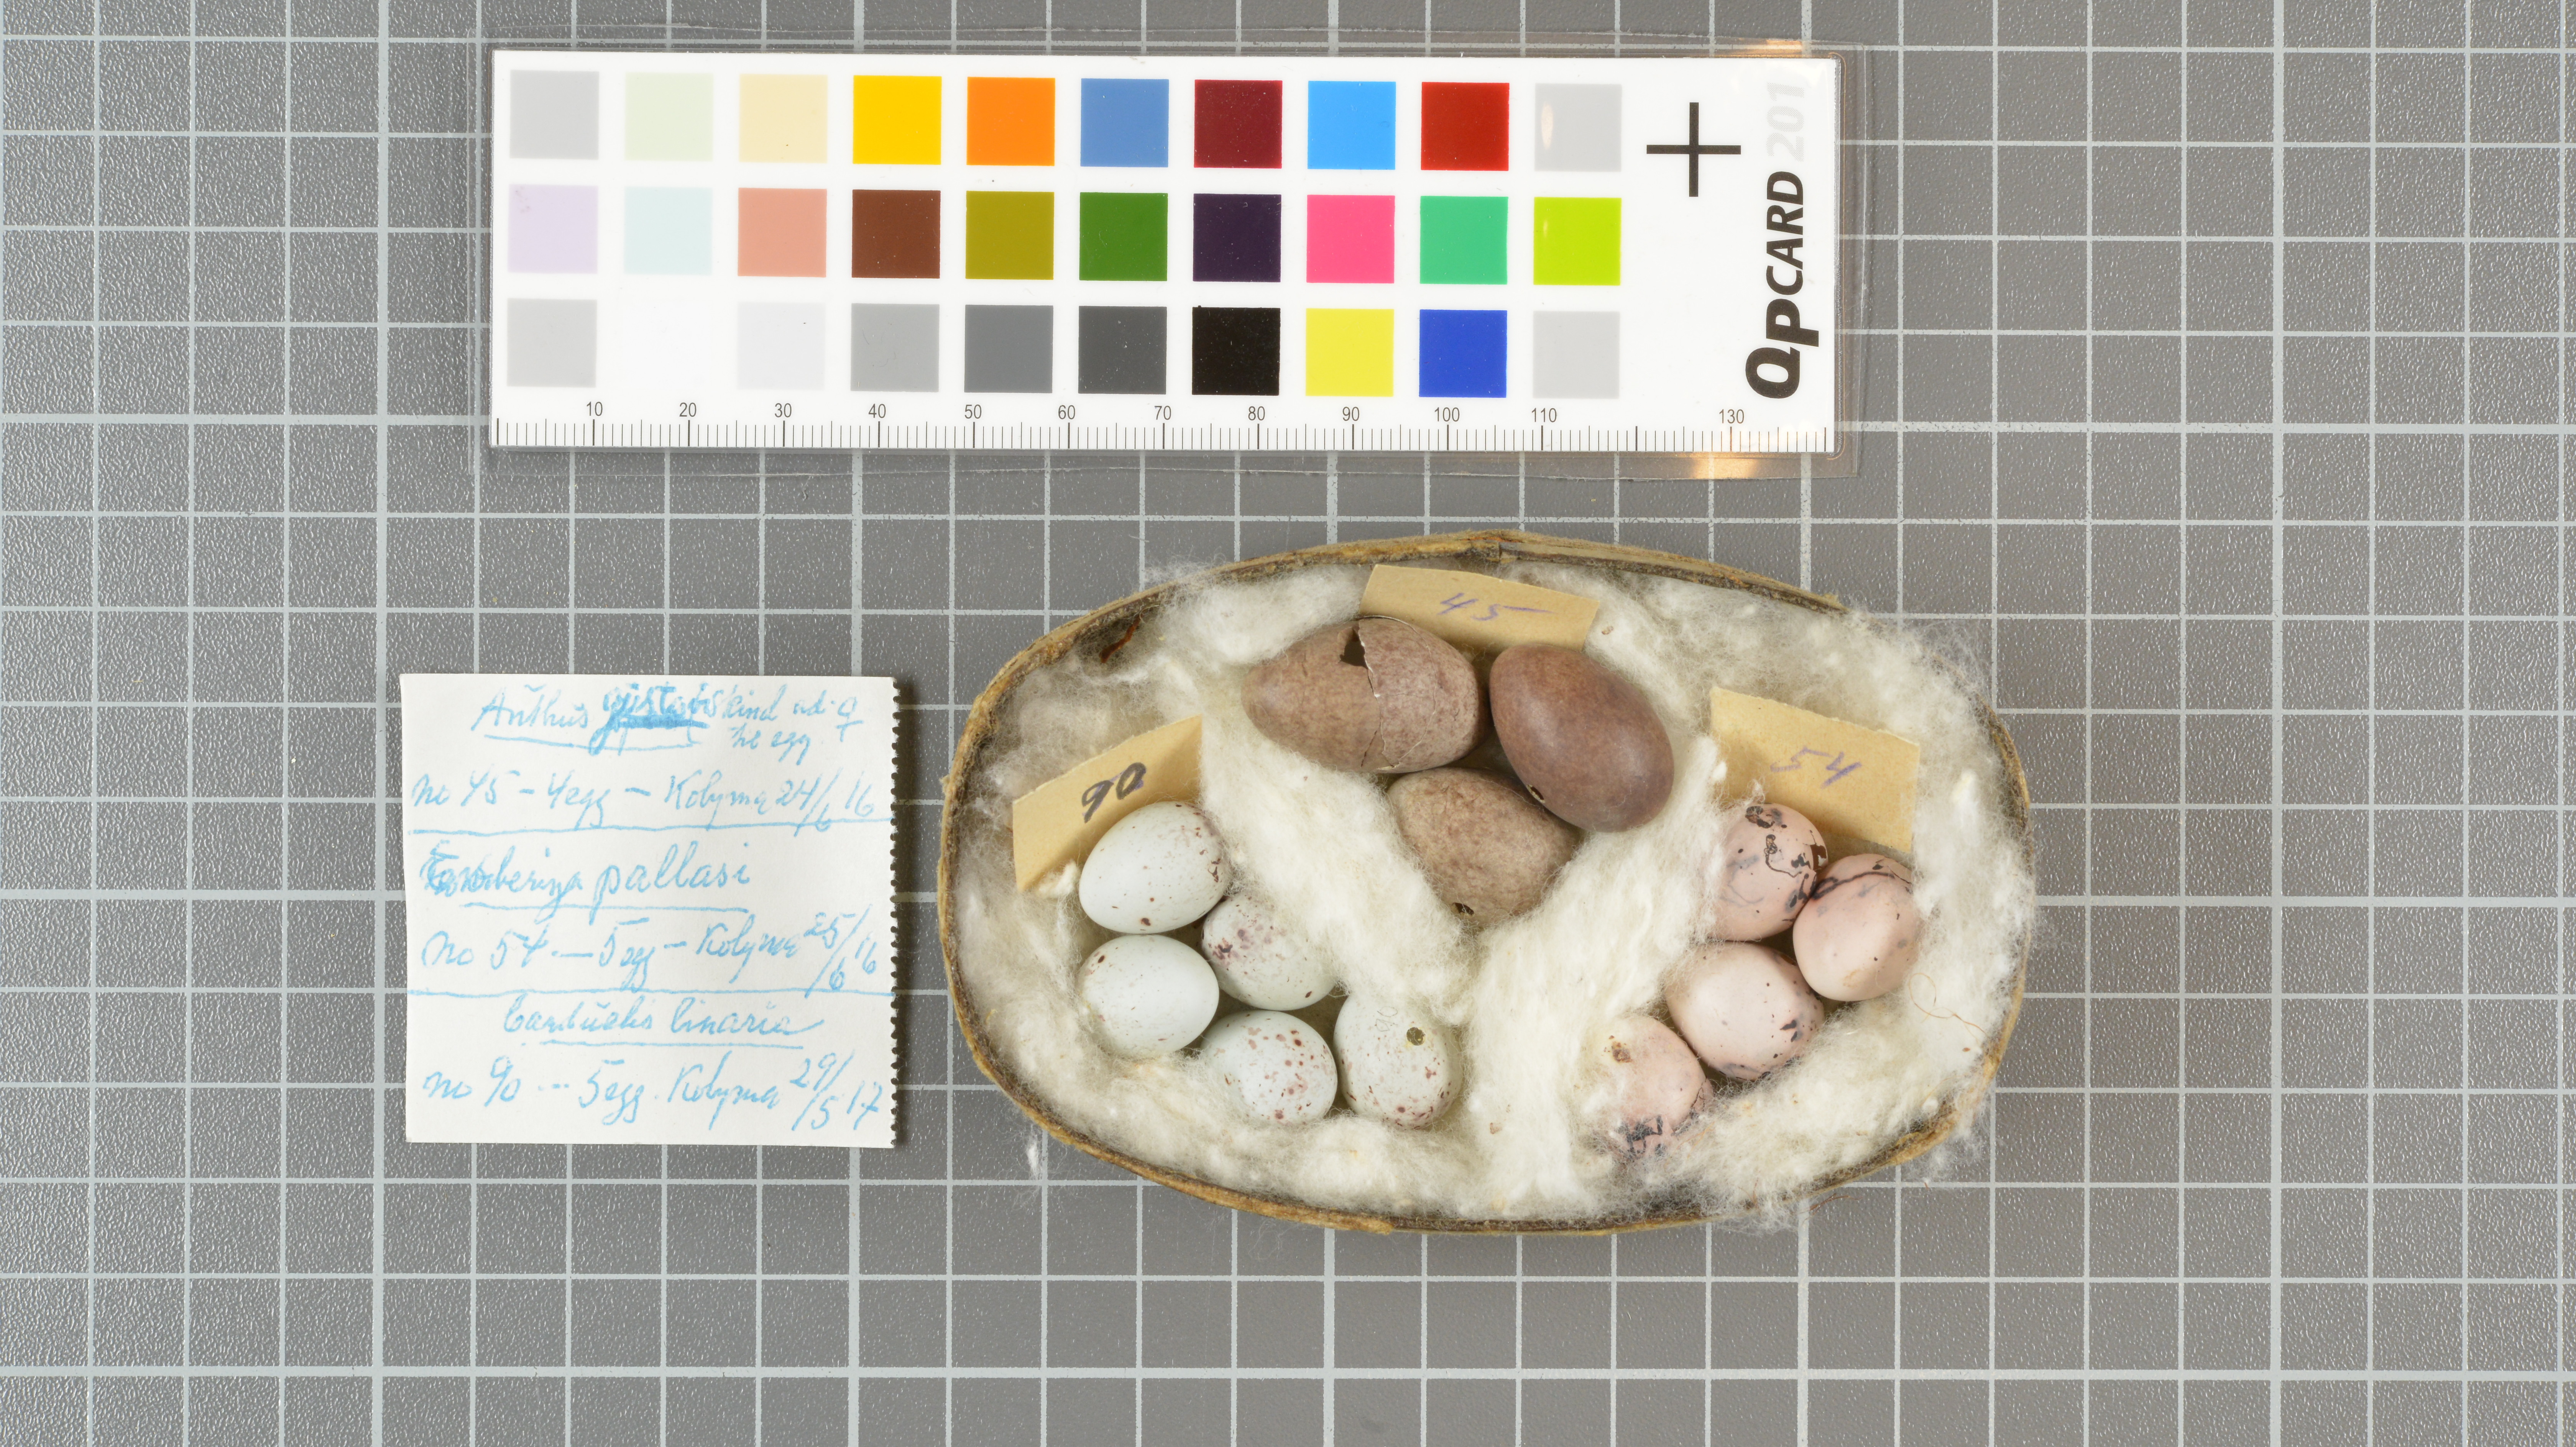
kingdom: Animalia
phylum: Chordata
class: Aves
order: Passeriformes
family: Motacillidae
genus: Anthus
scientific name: Anthus gustavi
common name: Pechora pipit
